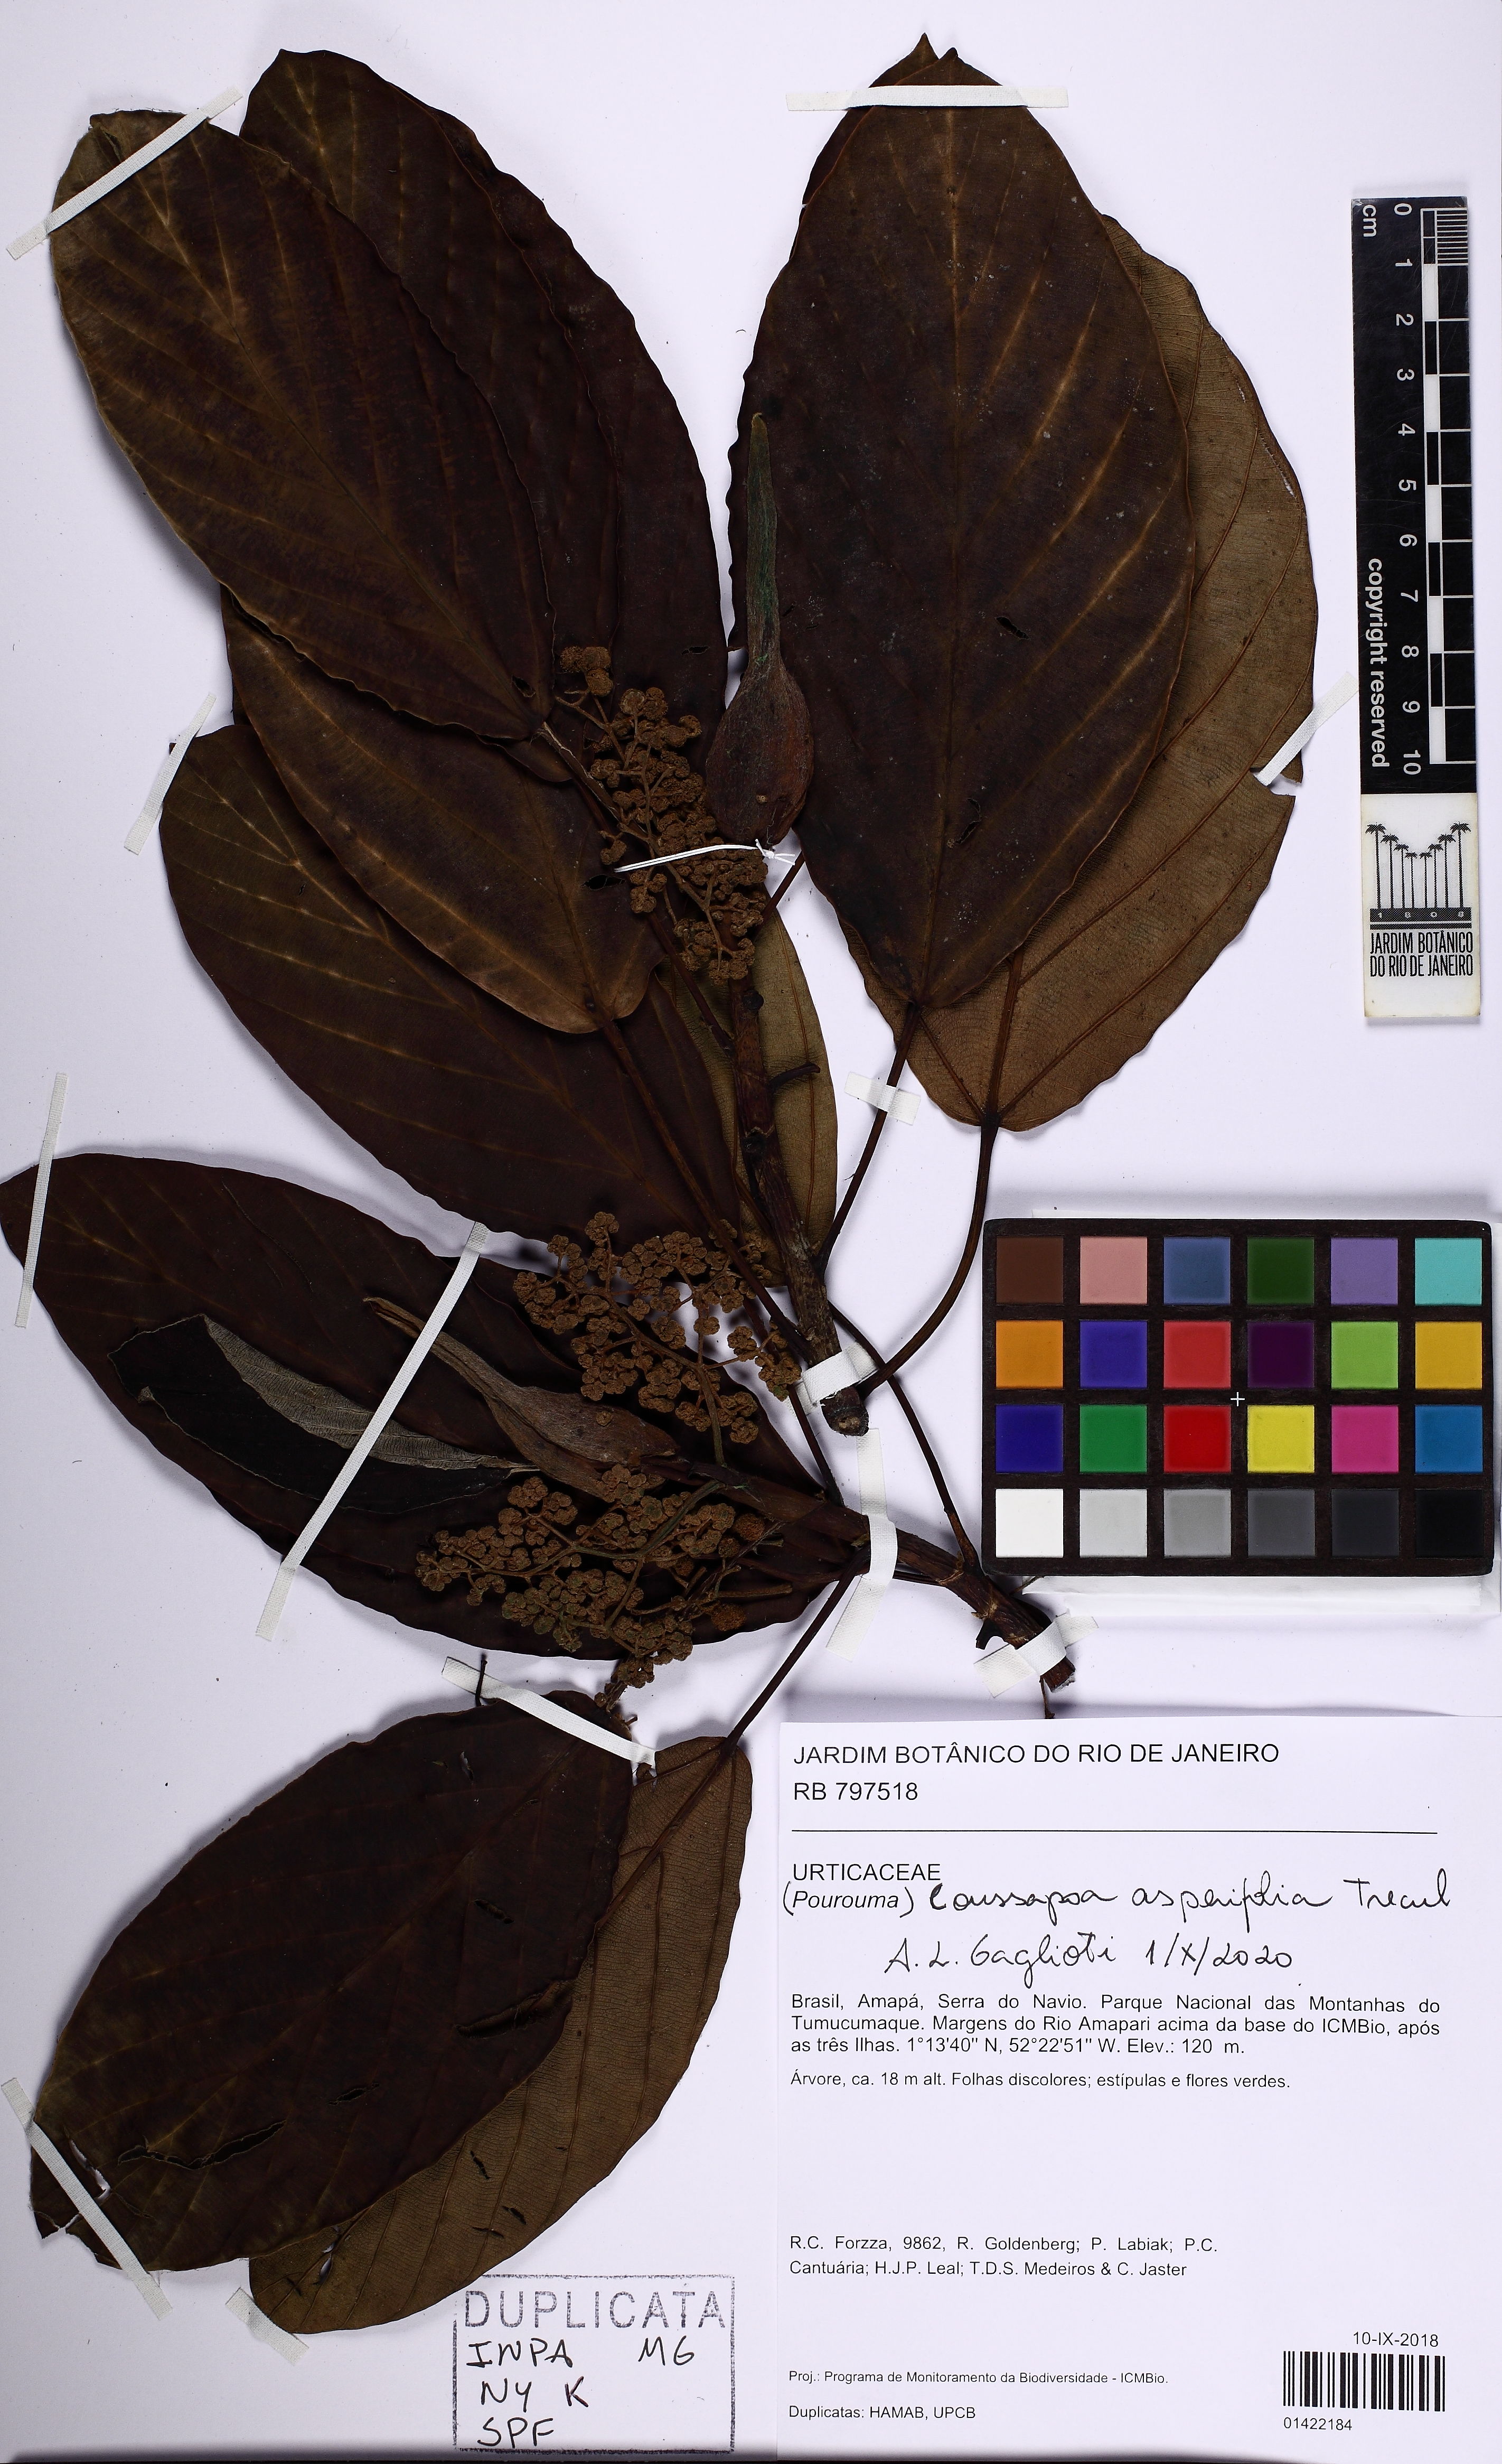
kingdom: Plantae
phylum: Tracheophyta
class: Magnoliopsida
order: Rosales
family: Urticaceae
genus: Coussapoa
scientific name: Coussapoa asperifolia
